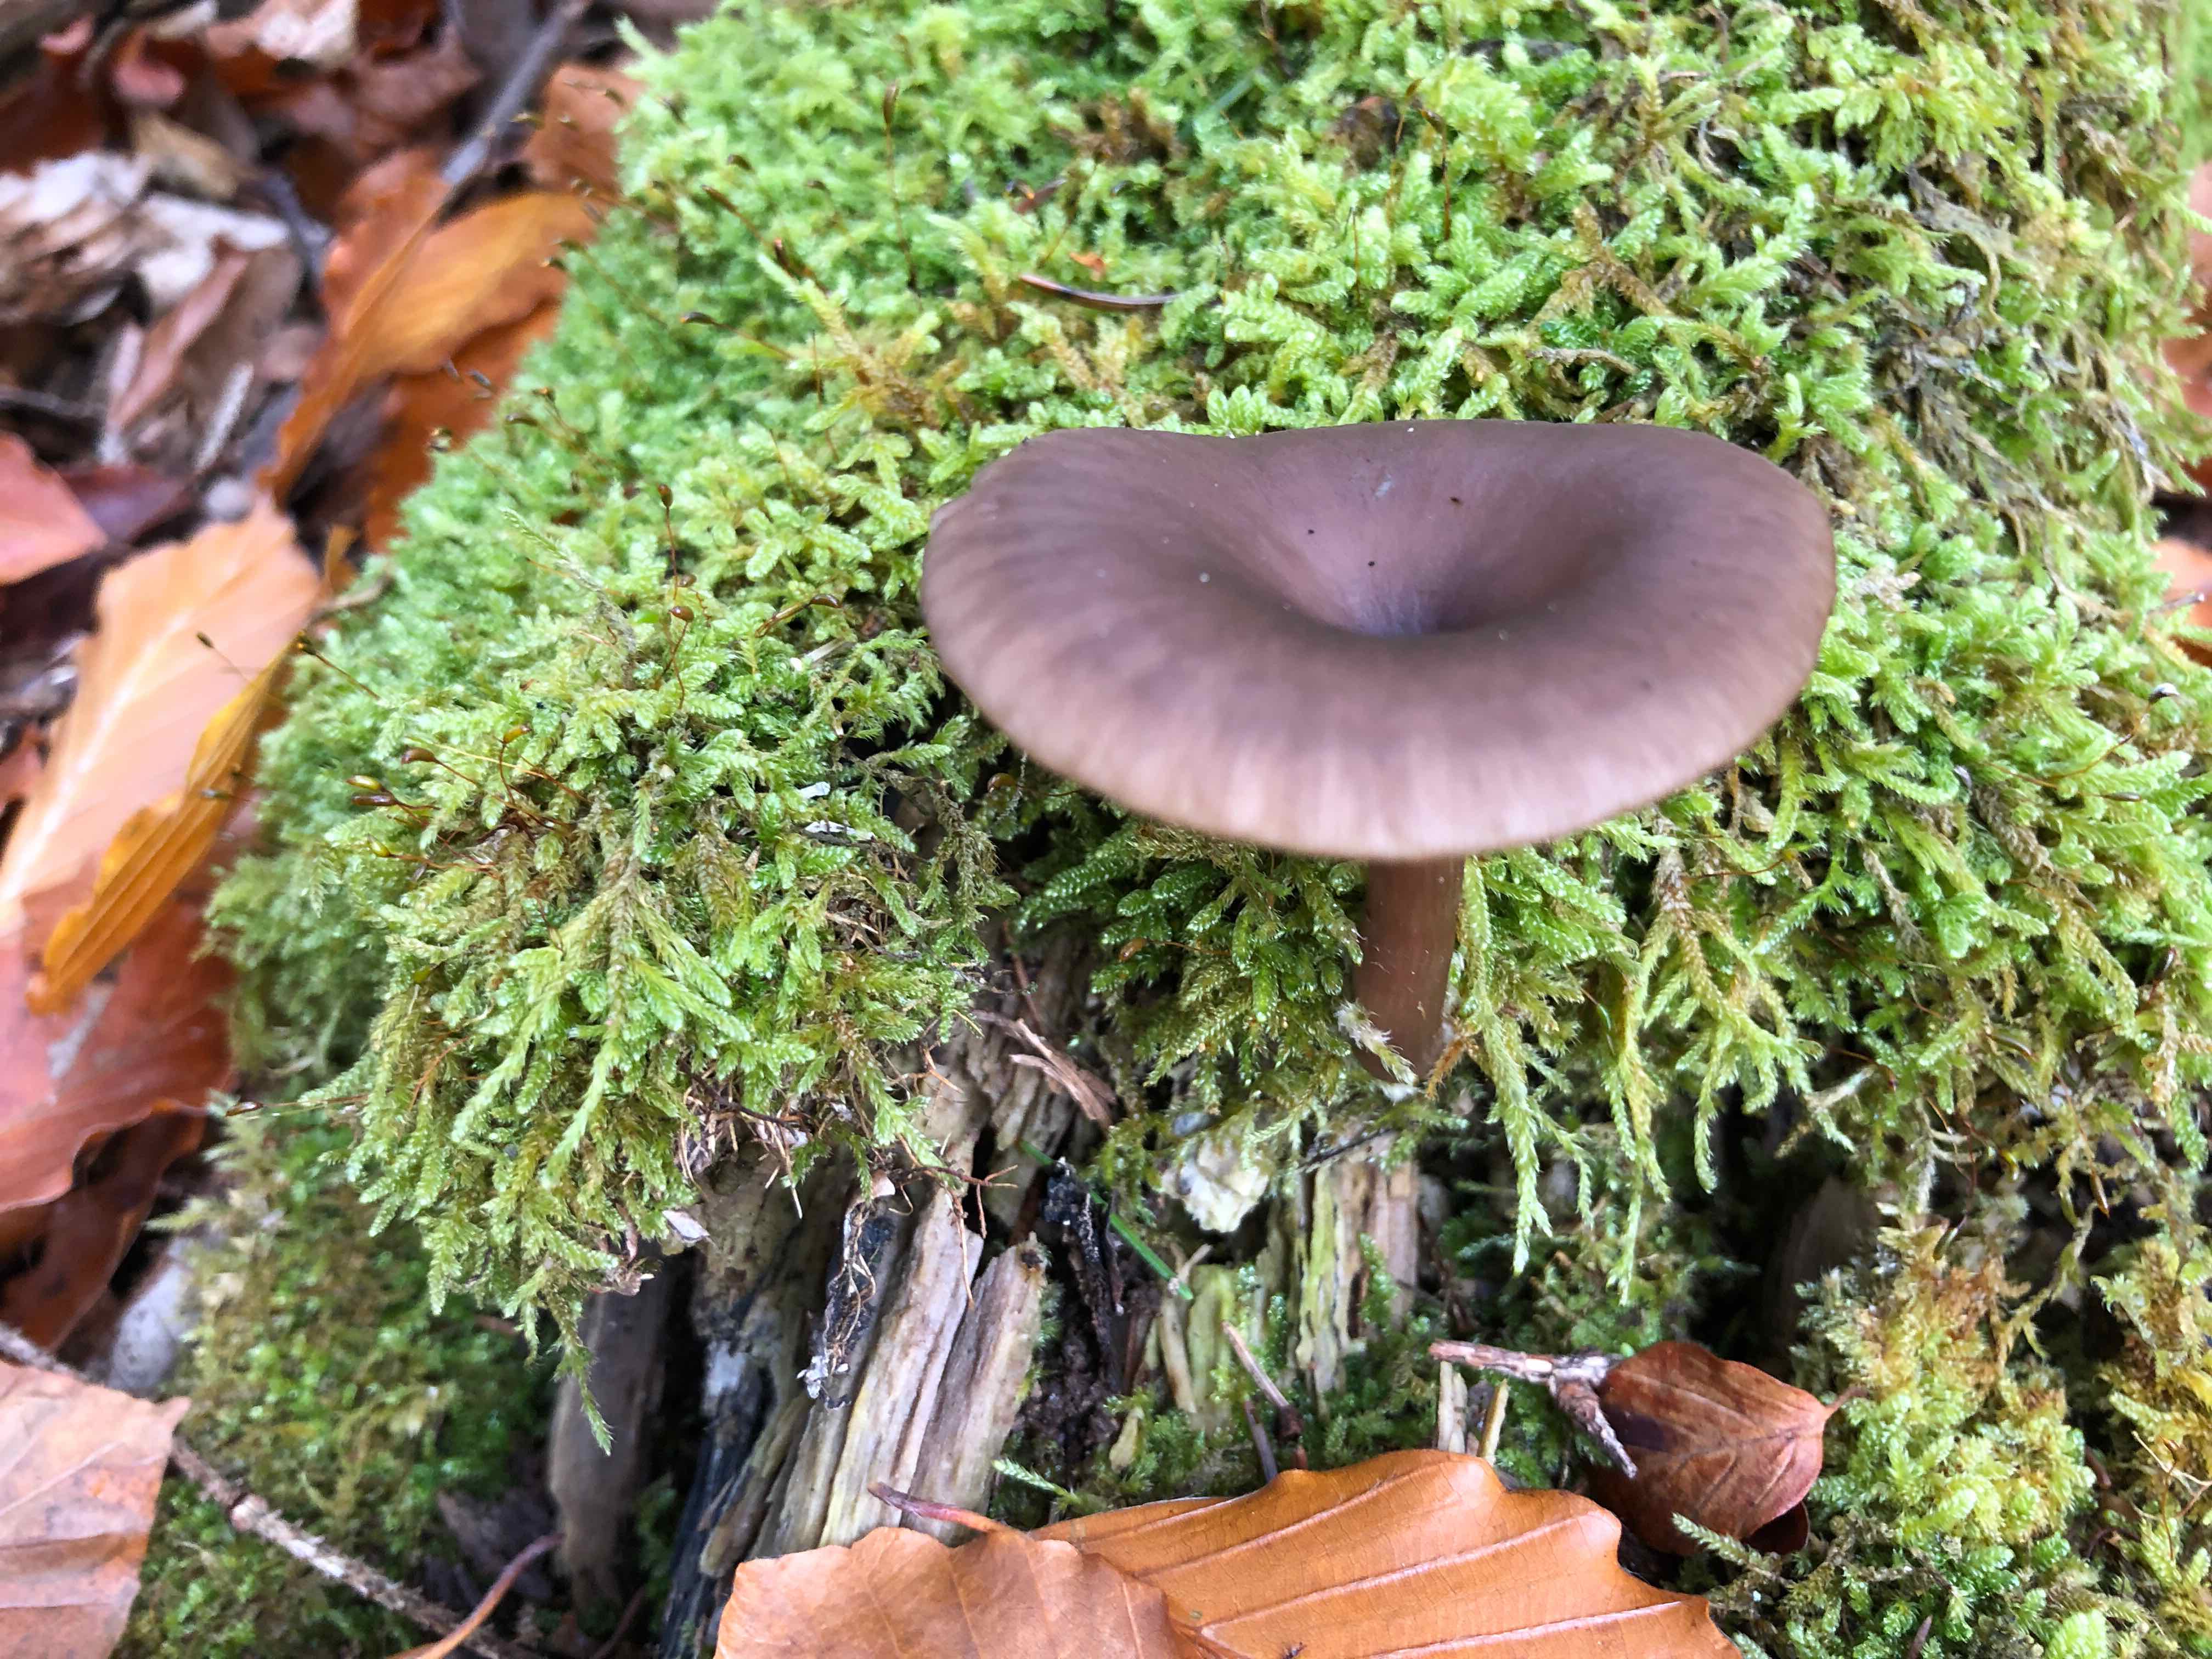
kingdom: Fungi
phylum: Basidiomycota
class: Agaricomycetes
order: Agaricales
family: Pseudoclitocybaceae
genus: Pseudoclitocybe
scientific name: Pseudoclitocybe cyathiformis
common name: almindelig bægertragthat
